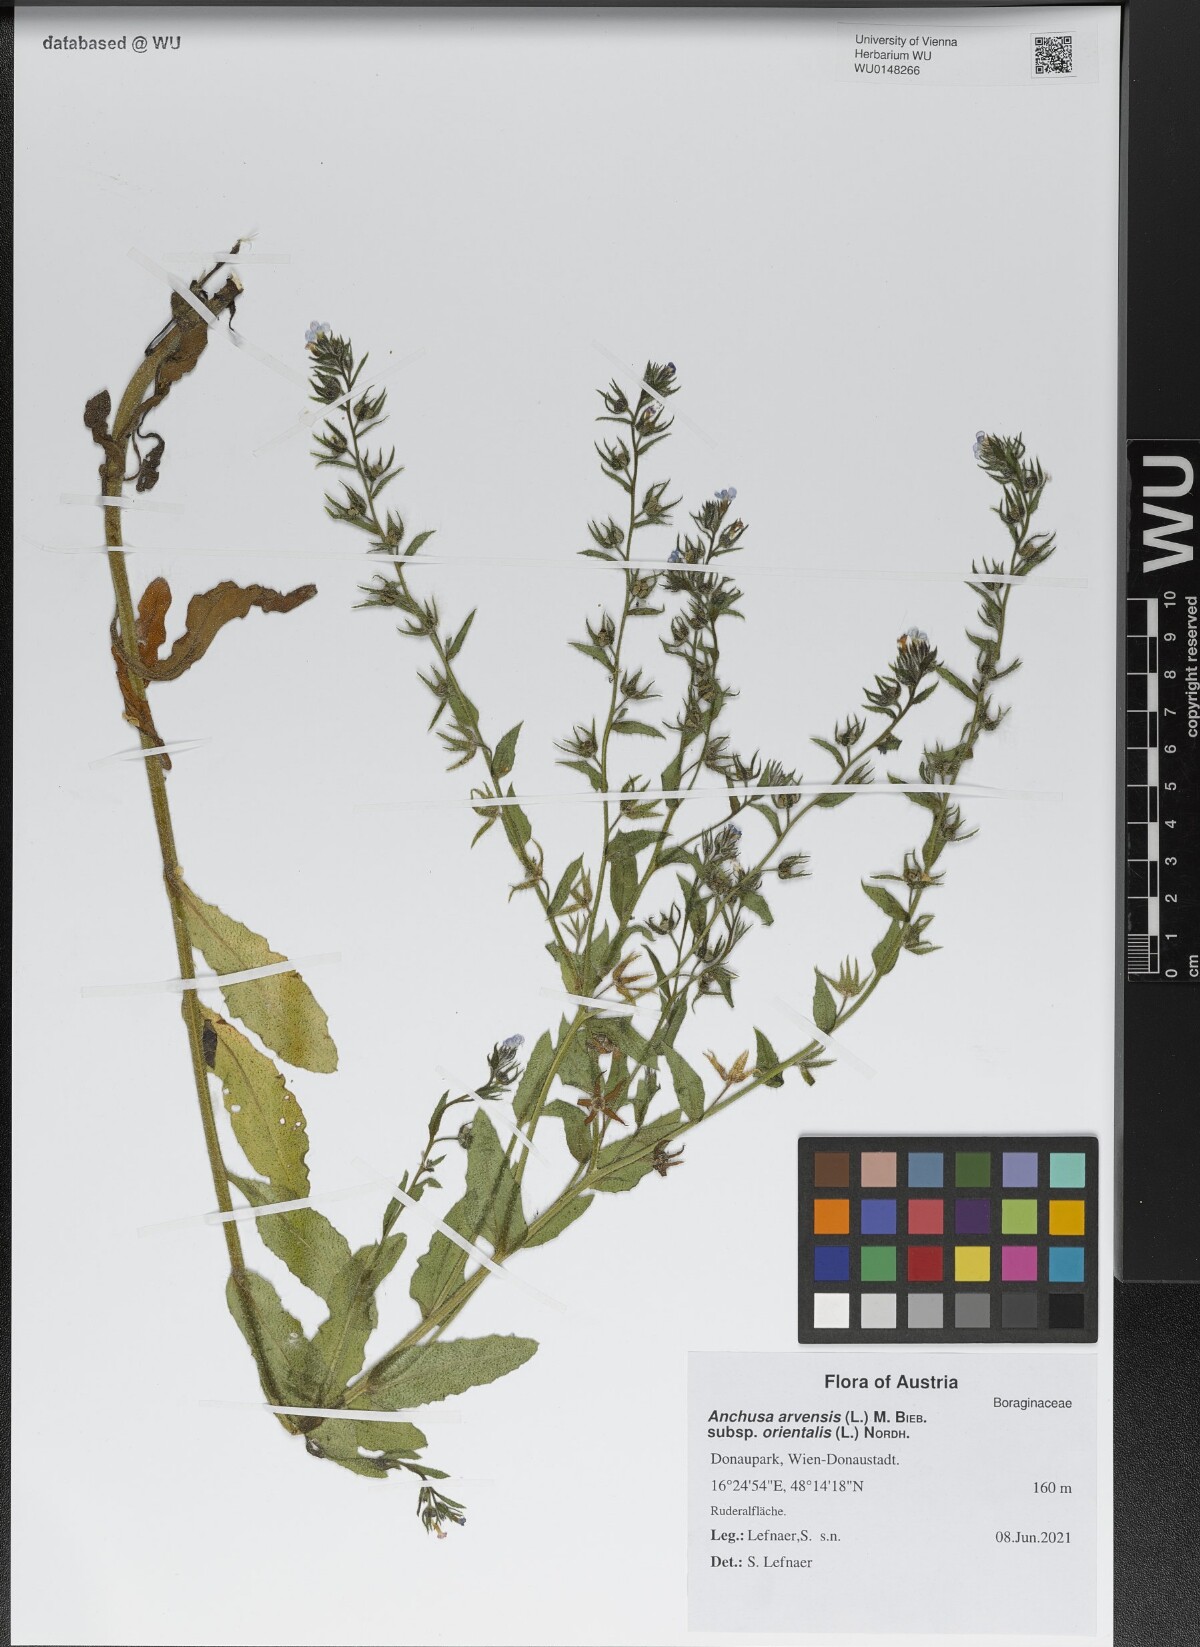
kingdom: Plantae
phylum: Tracheophyta
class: Magnoliopsida
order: Boraginales
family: Boraginaceae
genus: Lycopsis
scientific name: Lycopsis arvensis
